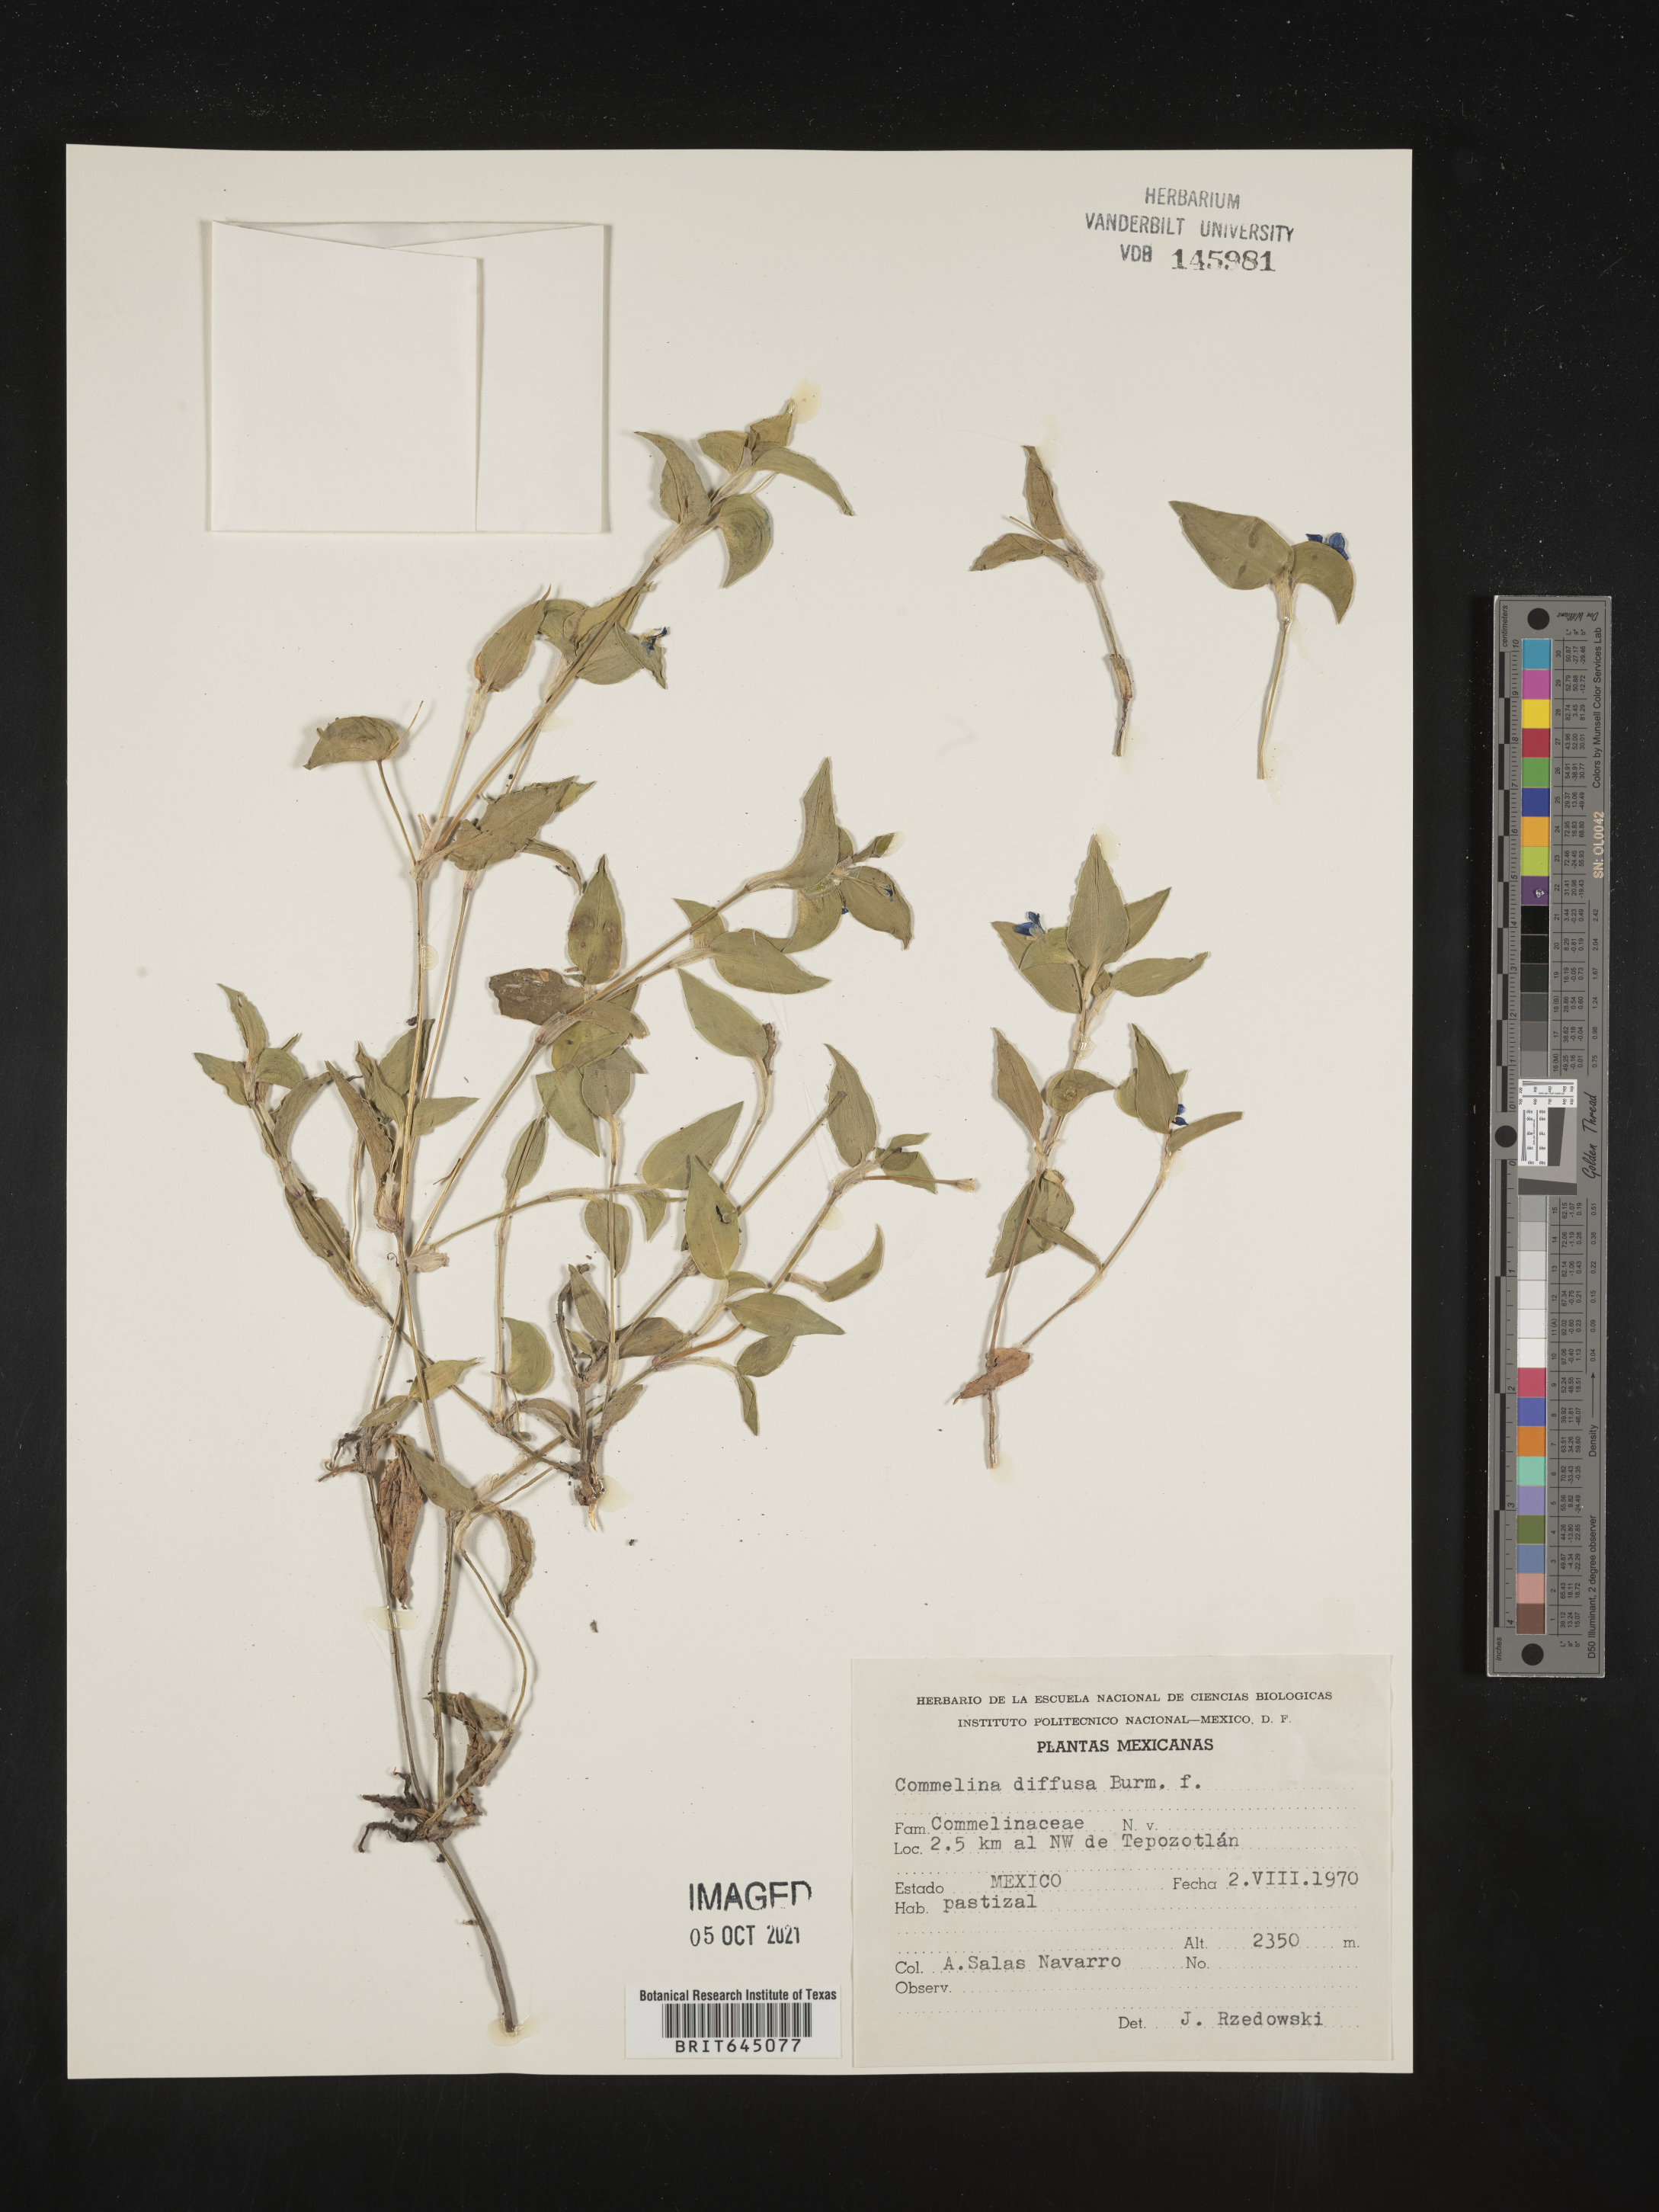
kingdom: Plantae
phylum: Tracheophyta
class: Liliopsida
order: Commelinales
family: Commelinaceae
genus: Commelina
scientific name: Commelina
